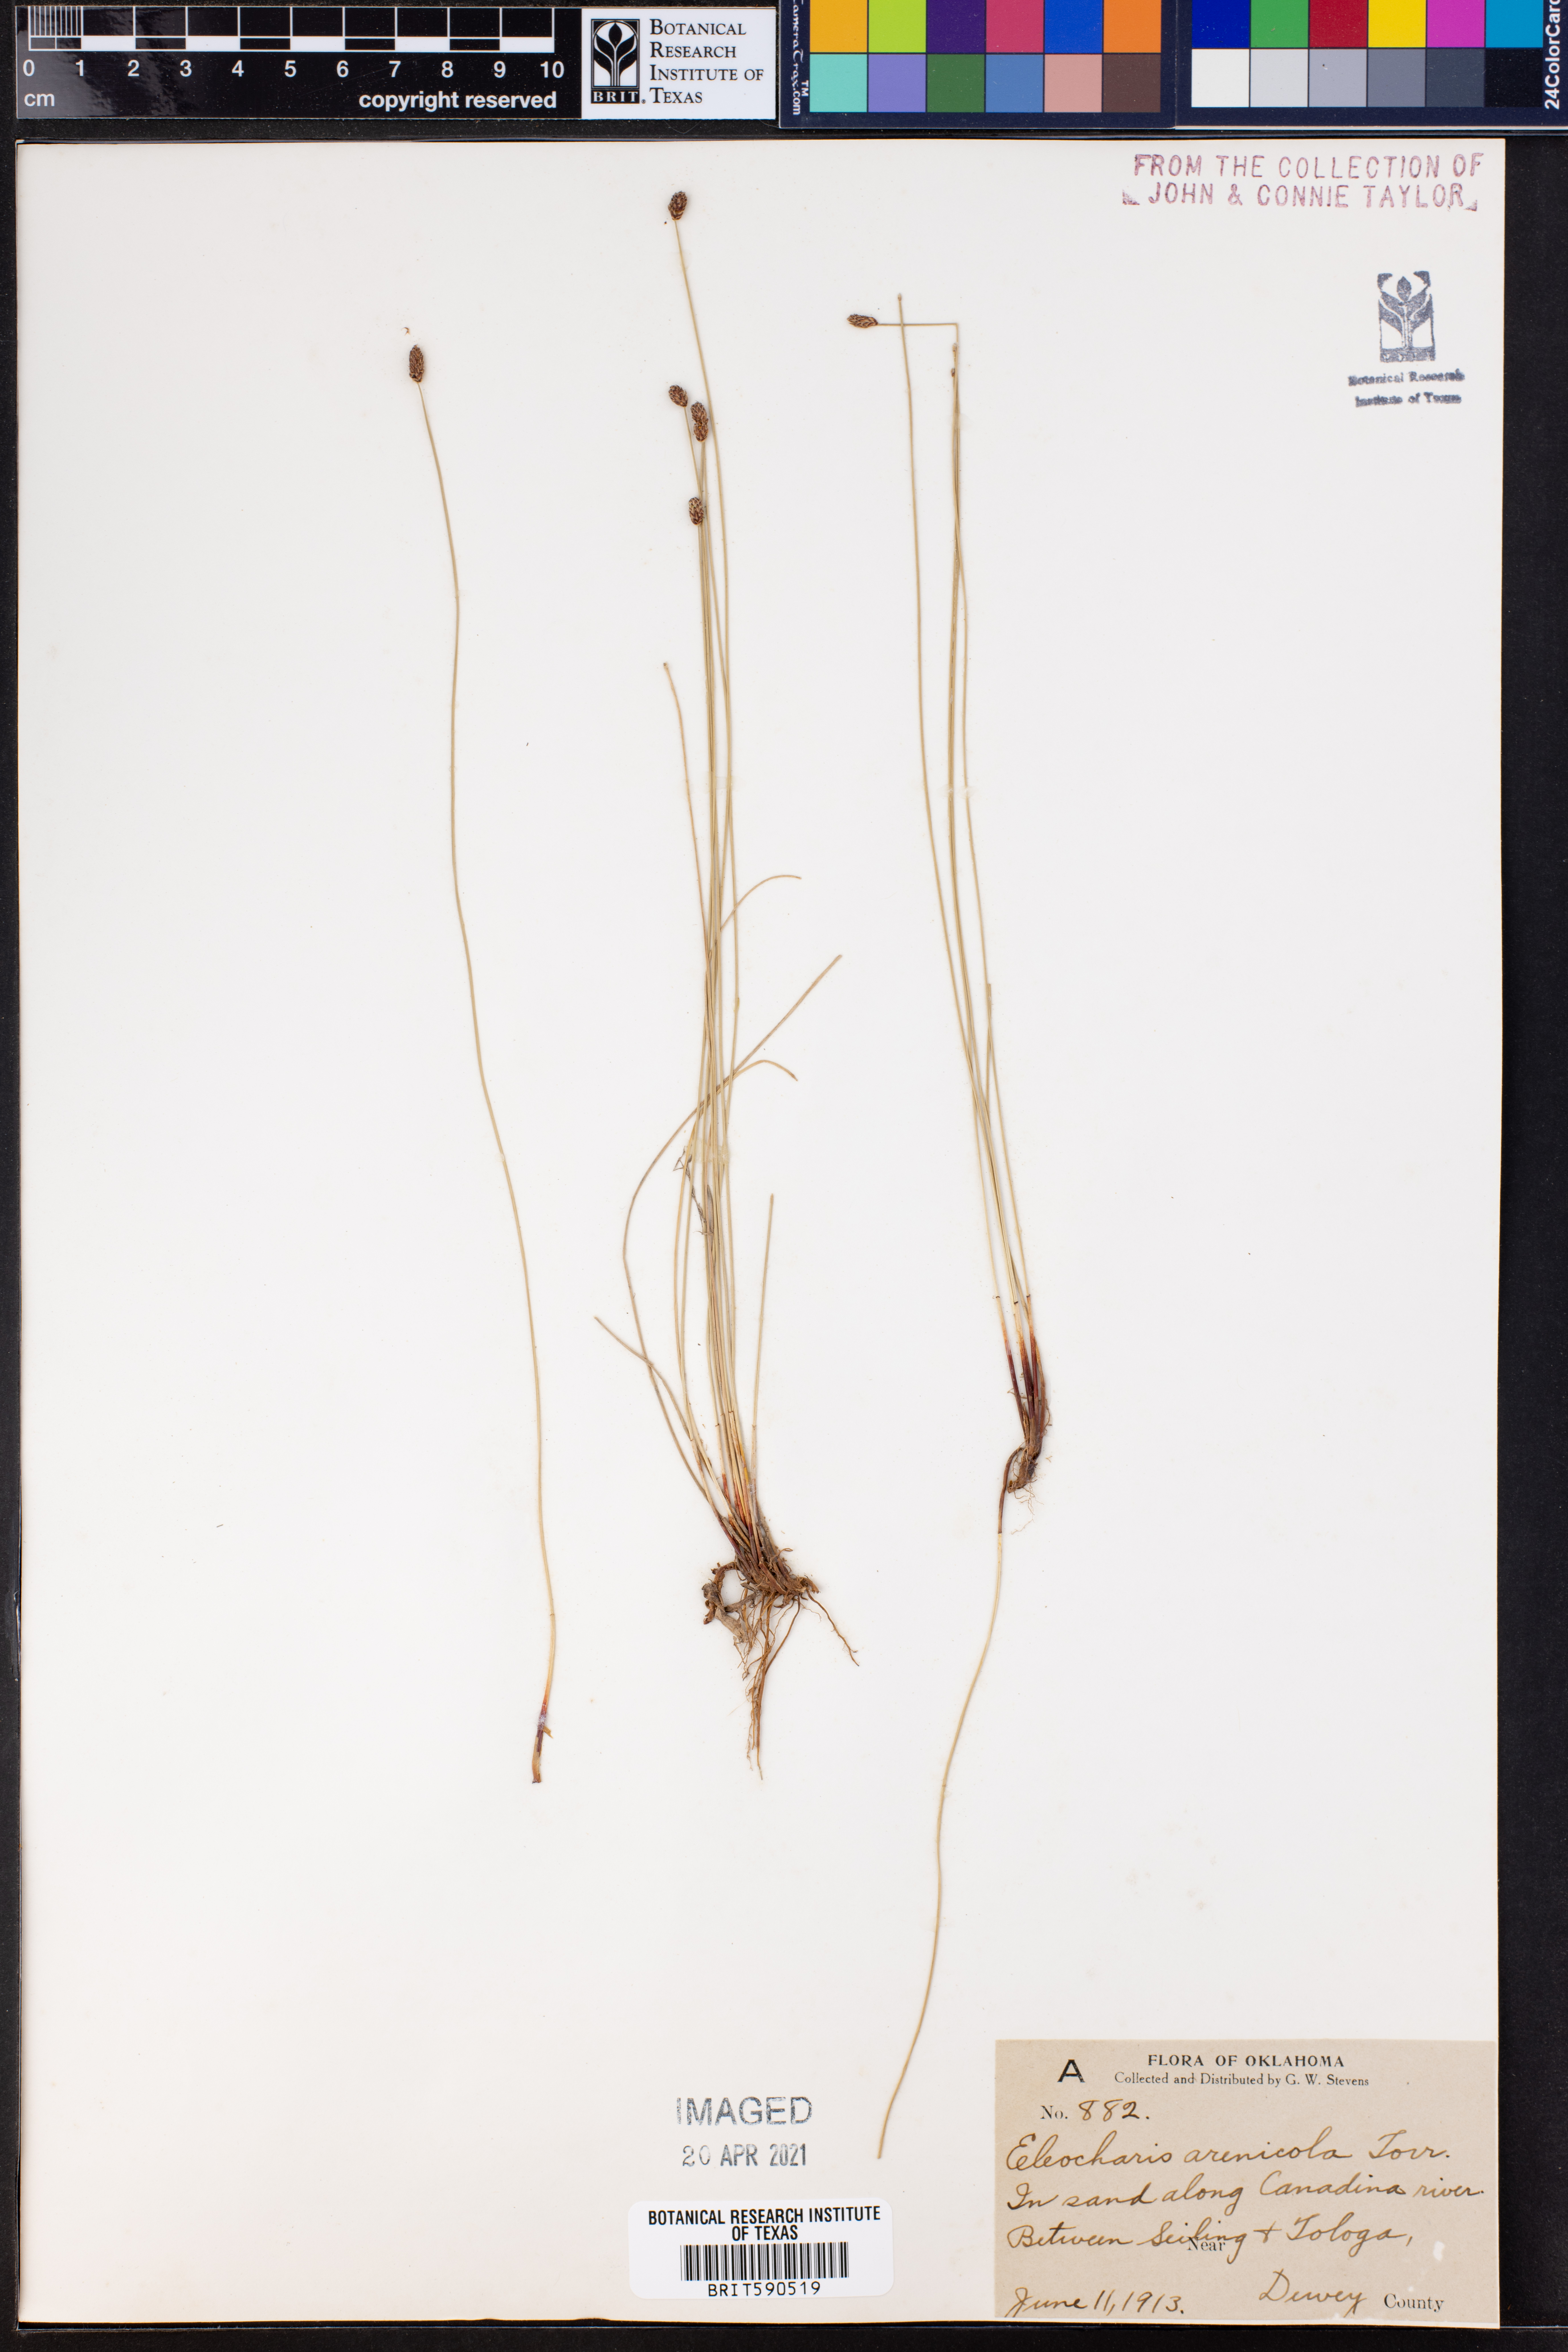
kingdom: Plantae
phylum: Tracheophyta
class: Liliopsida
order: Poales
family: Cyperaceae
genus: Eleocharis
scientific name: Eleocharis montevidensis
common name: Sand spike-rush
